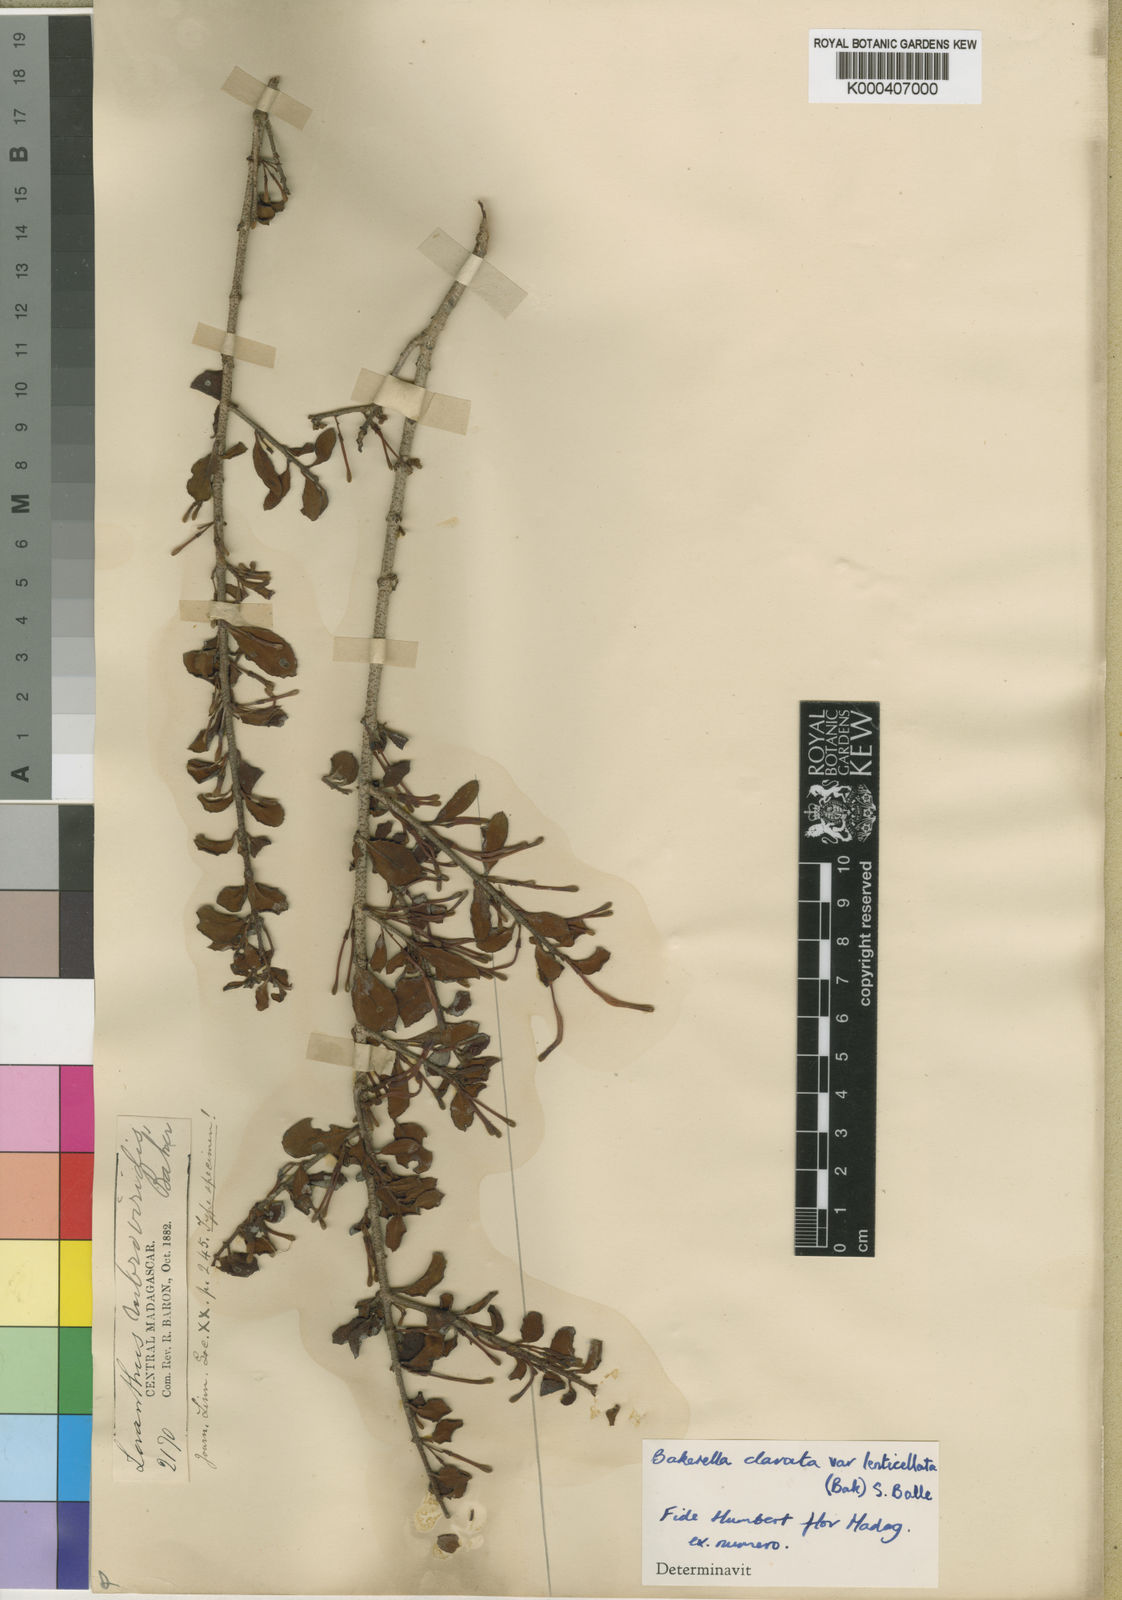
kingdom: Plantae
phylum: Tracheophyta
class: Magnoliopsida
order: Santalales
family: Loranthaceae
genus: Bakerella
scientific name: Bakerella clavata
